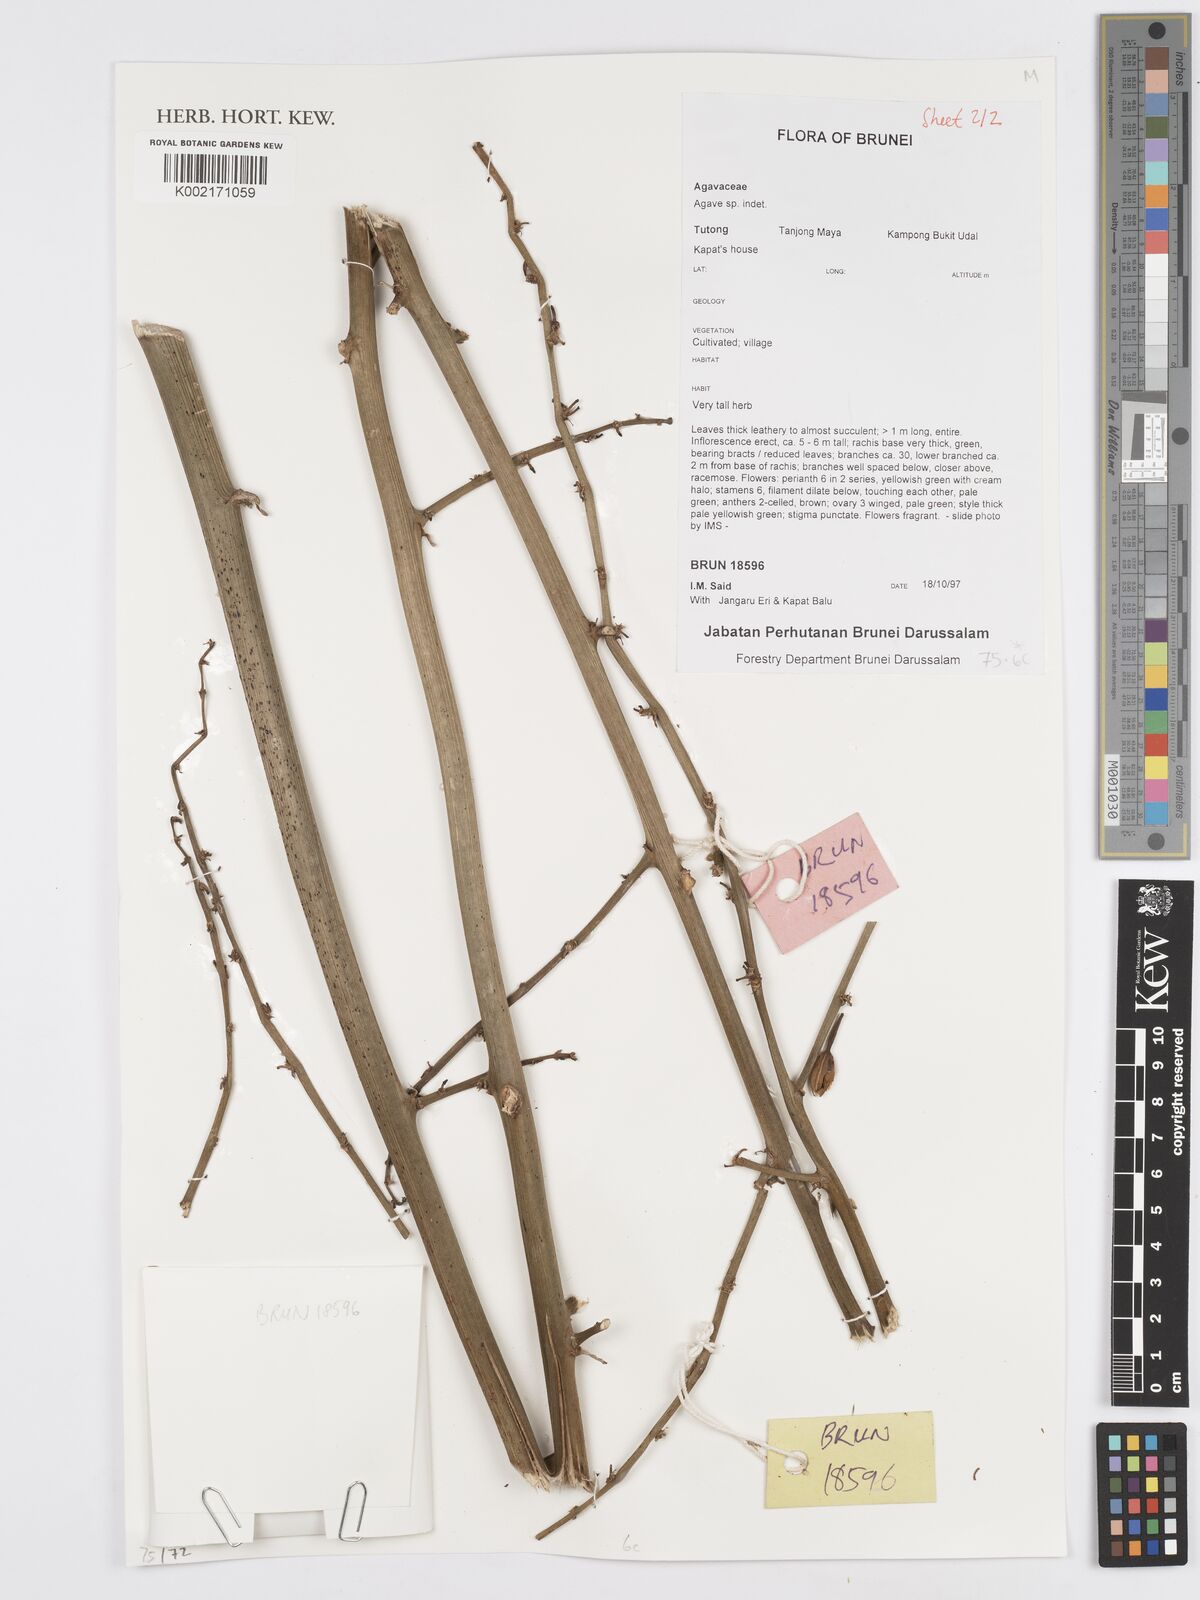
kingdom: Plantae
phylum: Tracheophyta
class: Liliopsida
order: Asparagales
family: Asparagaceae
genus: Agave
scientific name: Agave
